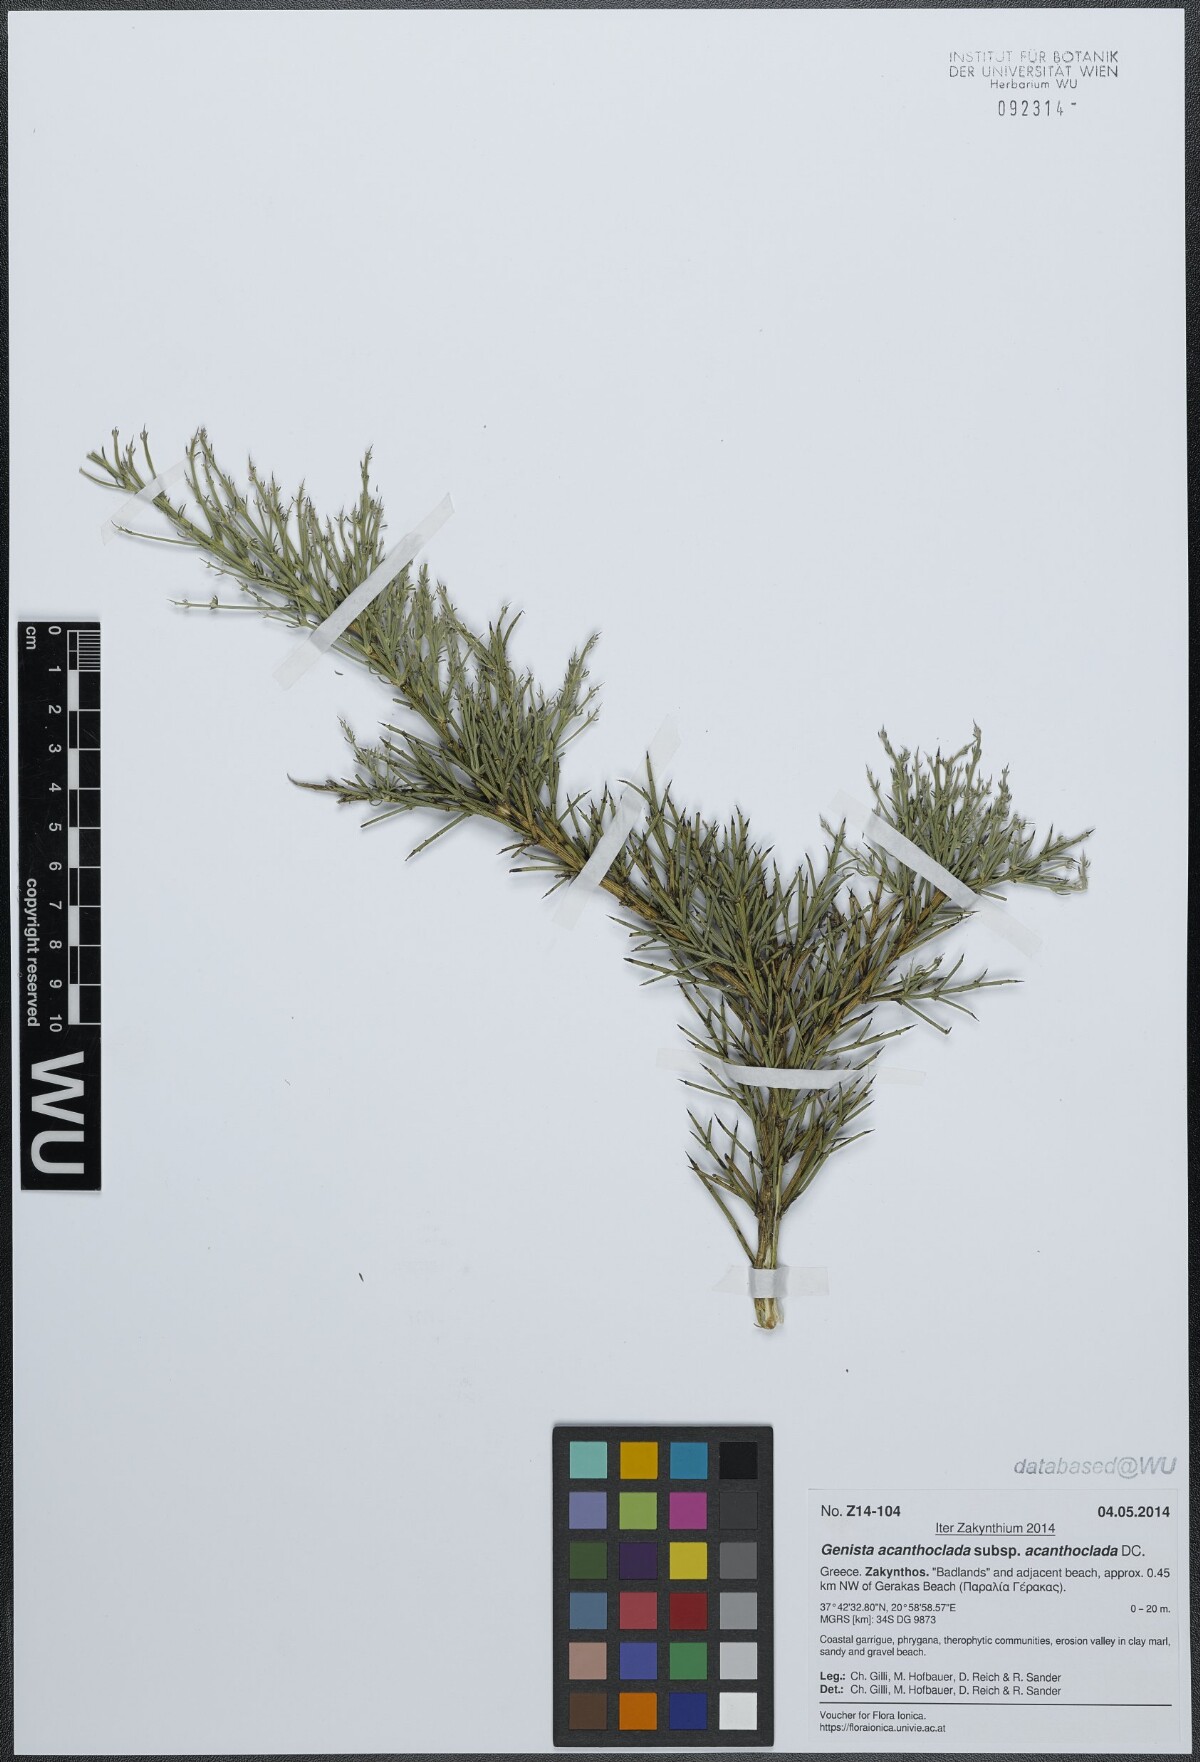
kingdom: Plantae
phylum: Tracheophyta
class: Magnoliopsida
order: Fabales
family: Fabaceae
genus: Genista
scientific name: Genista acanthoclada
